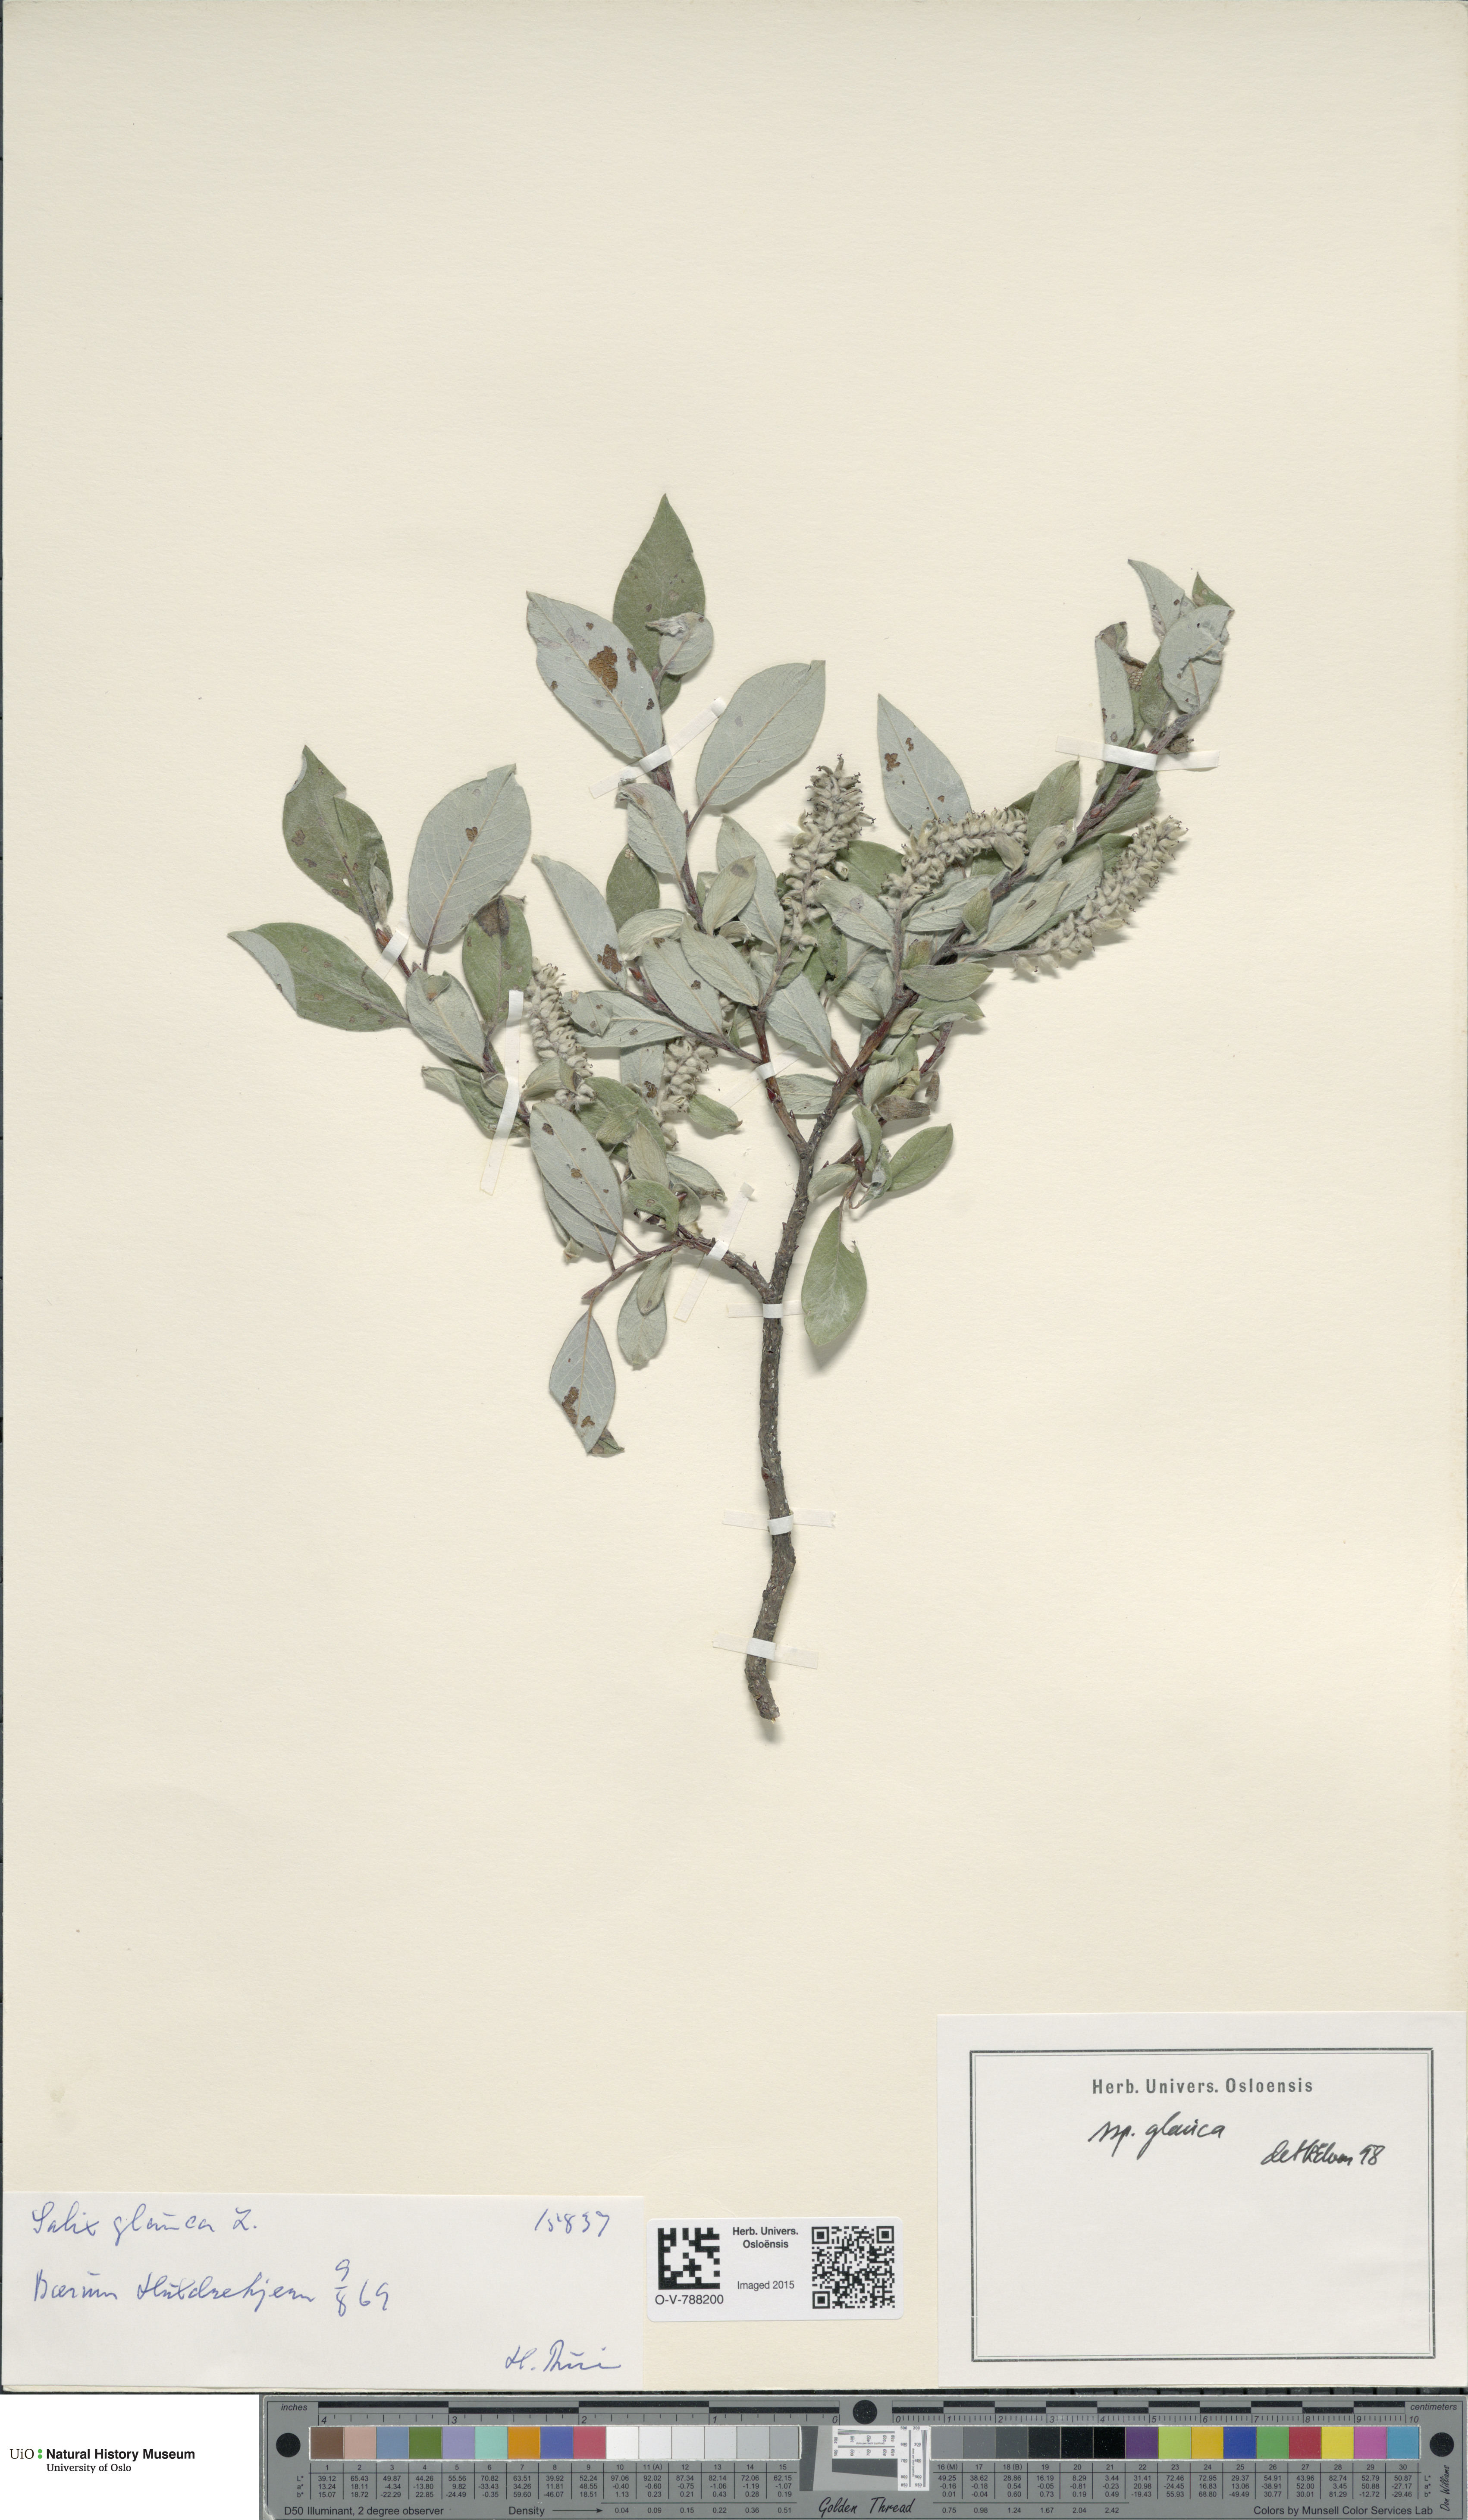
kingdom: Plantae
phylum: Tracheophyta
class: Magnoliopsida
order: Malpighiales
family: Salicaceae
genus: Salix
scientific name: Salix glauca
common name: Glaucous willow
